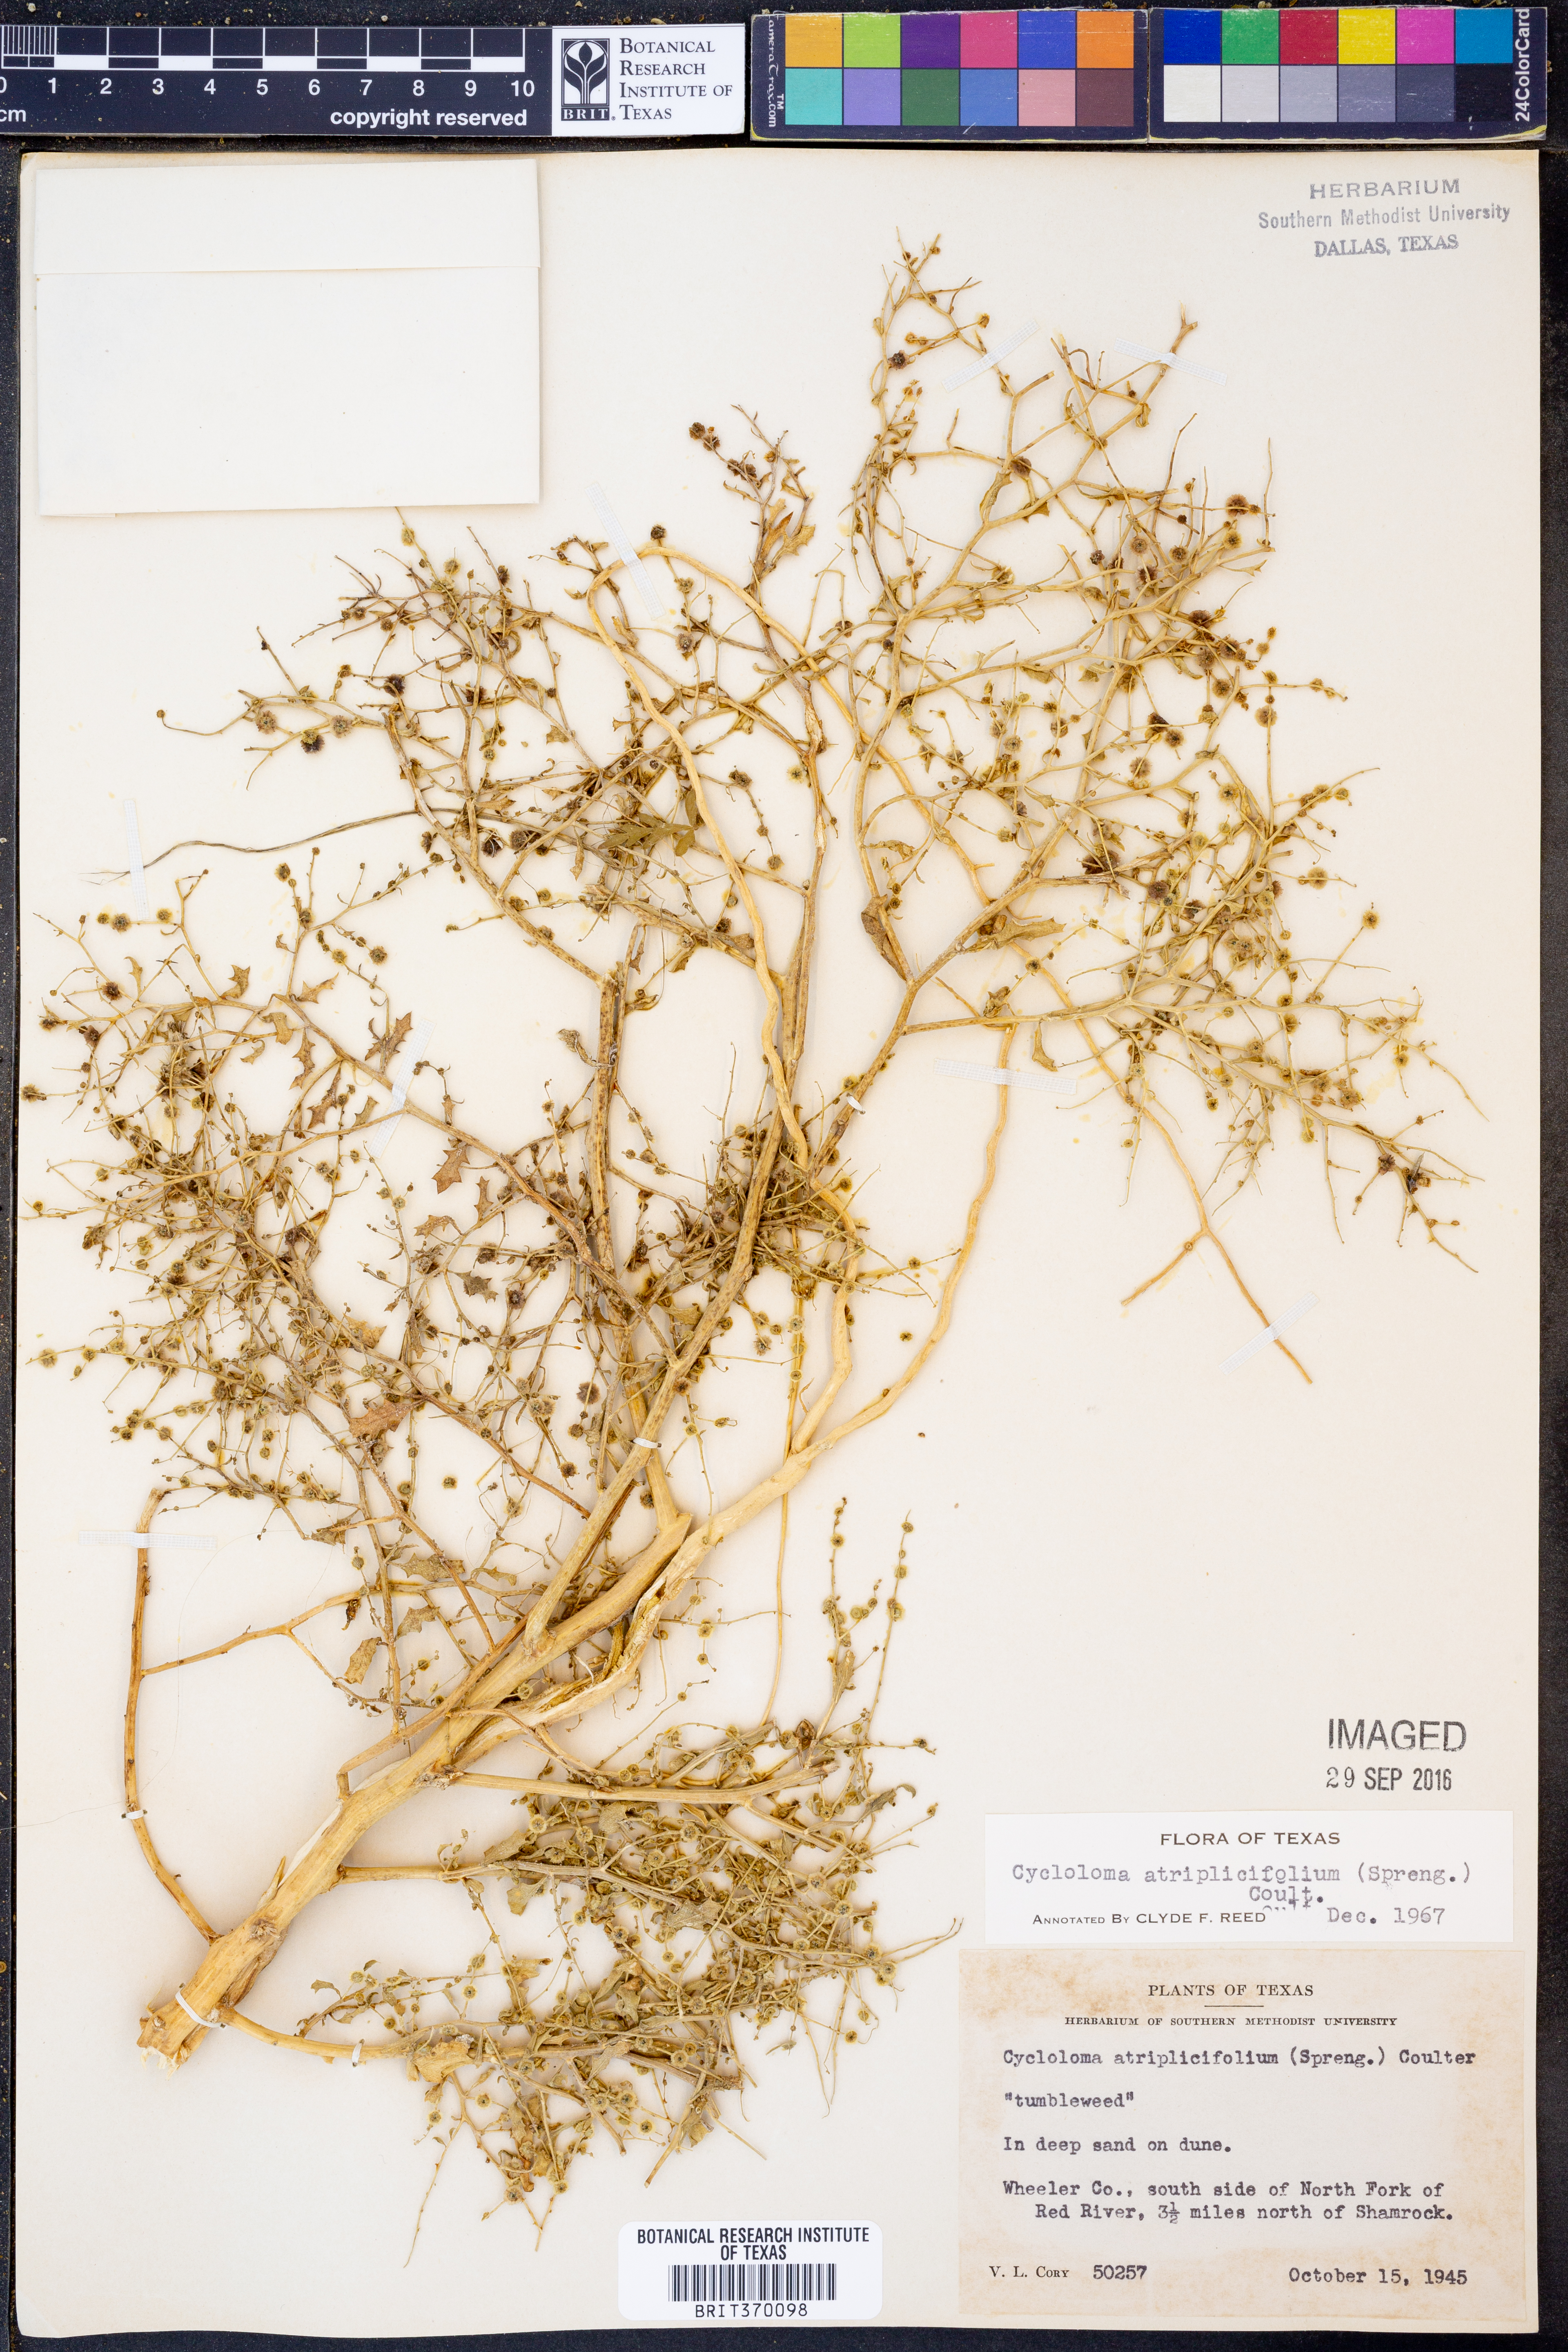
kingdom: Plantae
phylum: Tracheophyta
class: Magnoliopsida
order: Caryophyllales
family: Amaranthaceae
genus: Dysphania
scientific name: Dysphania atriplicifolia
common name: Plains tumbleweed
